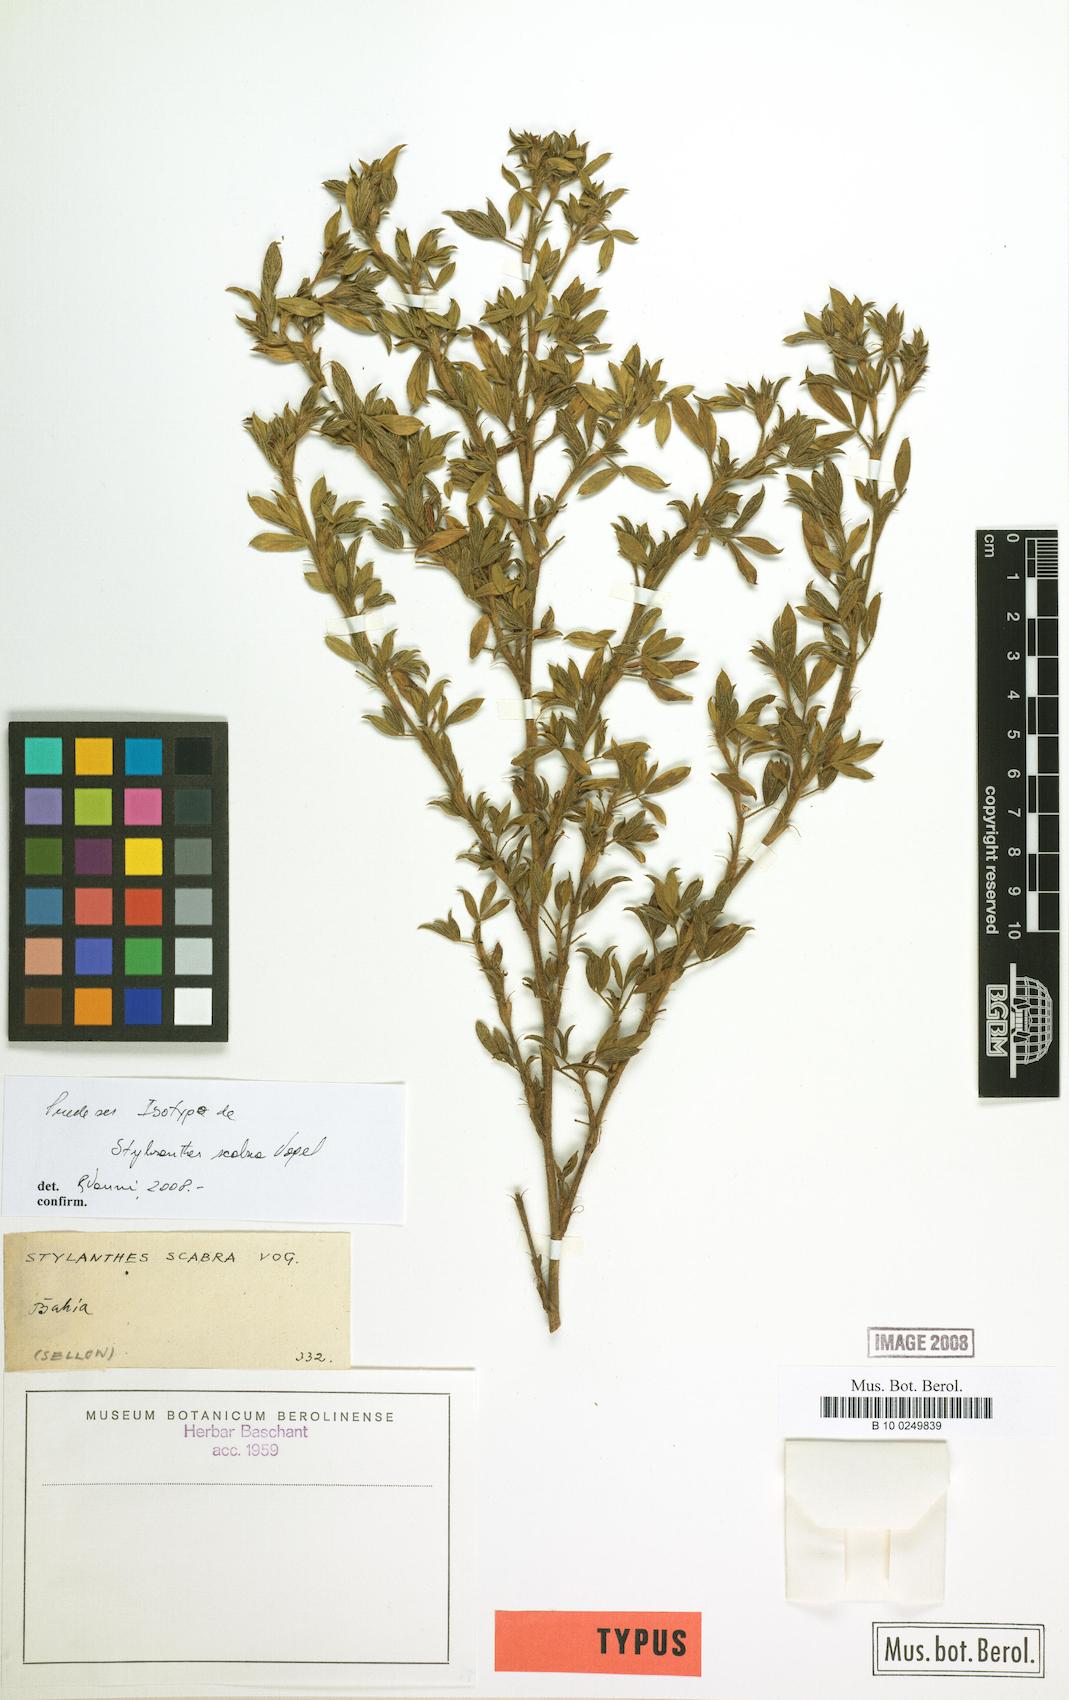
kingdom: Plantae
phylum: Tracheophyta
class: Magnoliopsida
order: Fabales
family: Fabaceae
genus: Stylosanthes
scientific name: Stylosanthes scabra
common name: Pencilflower
